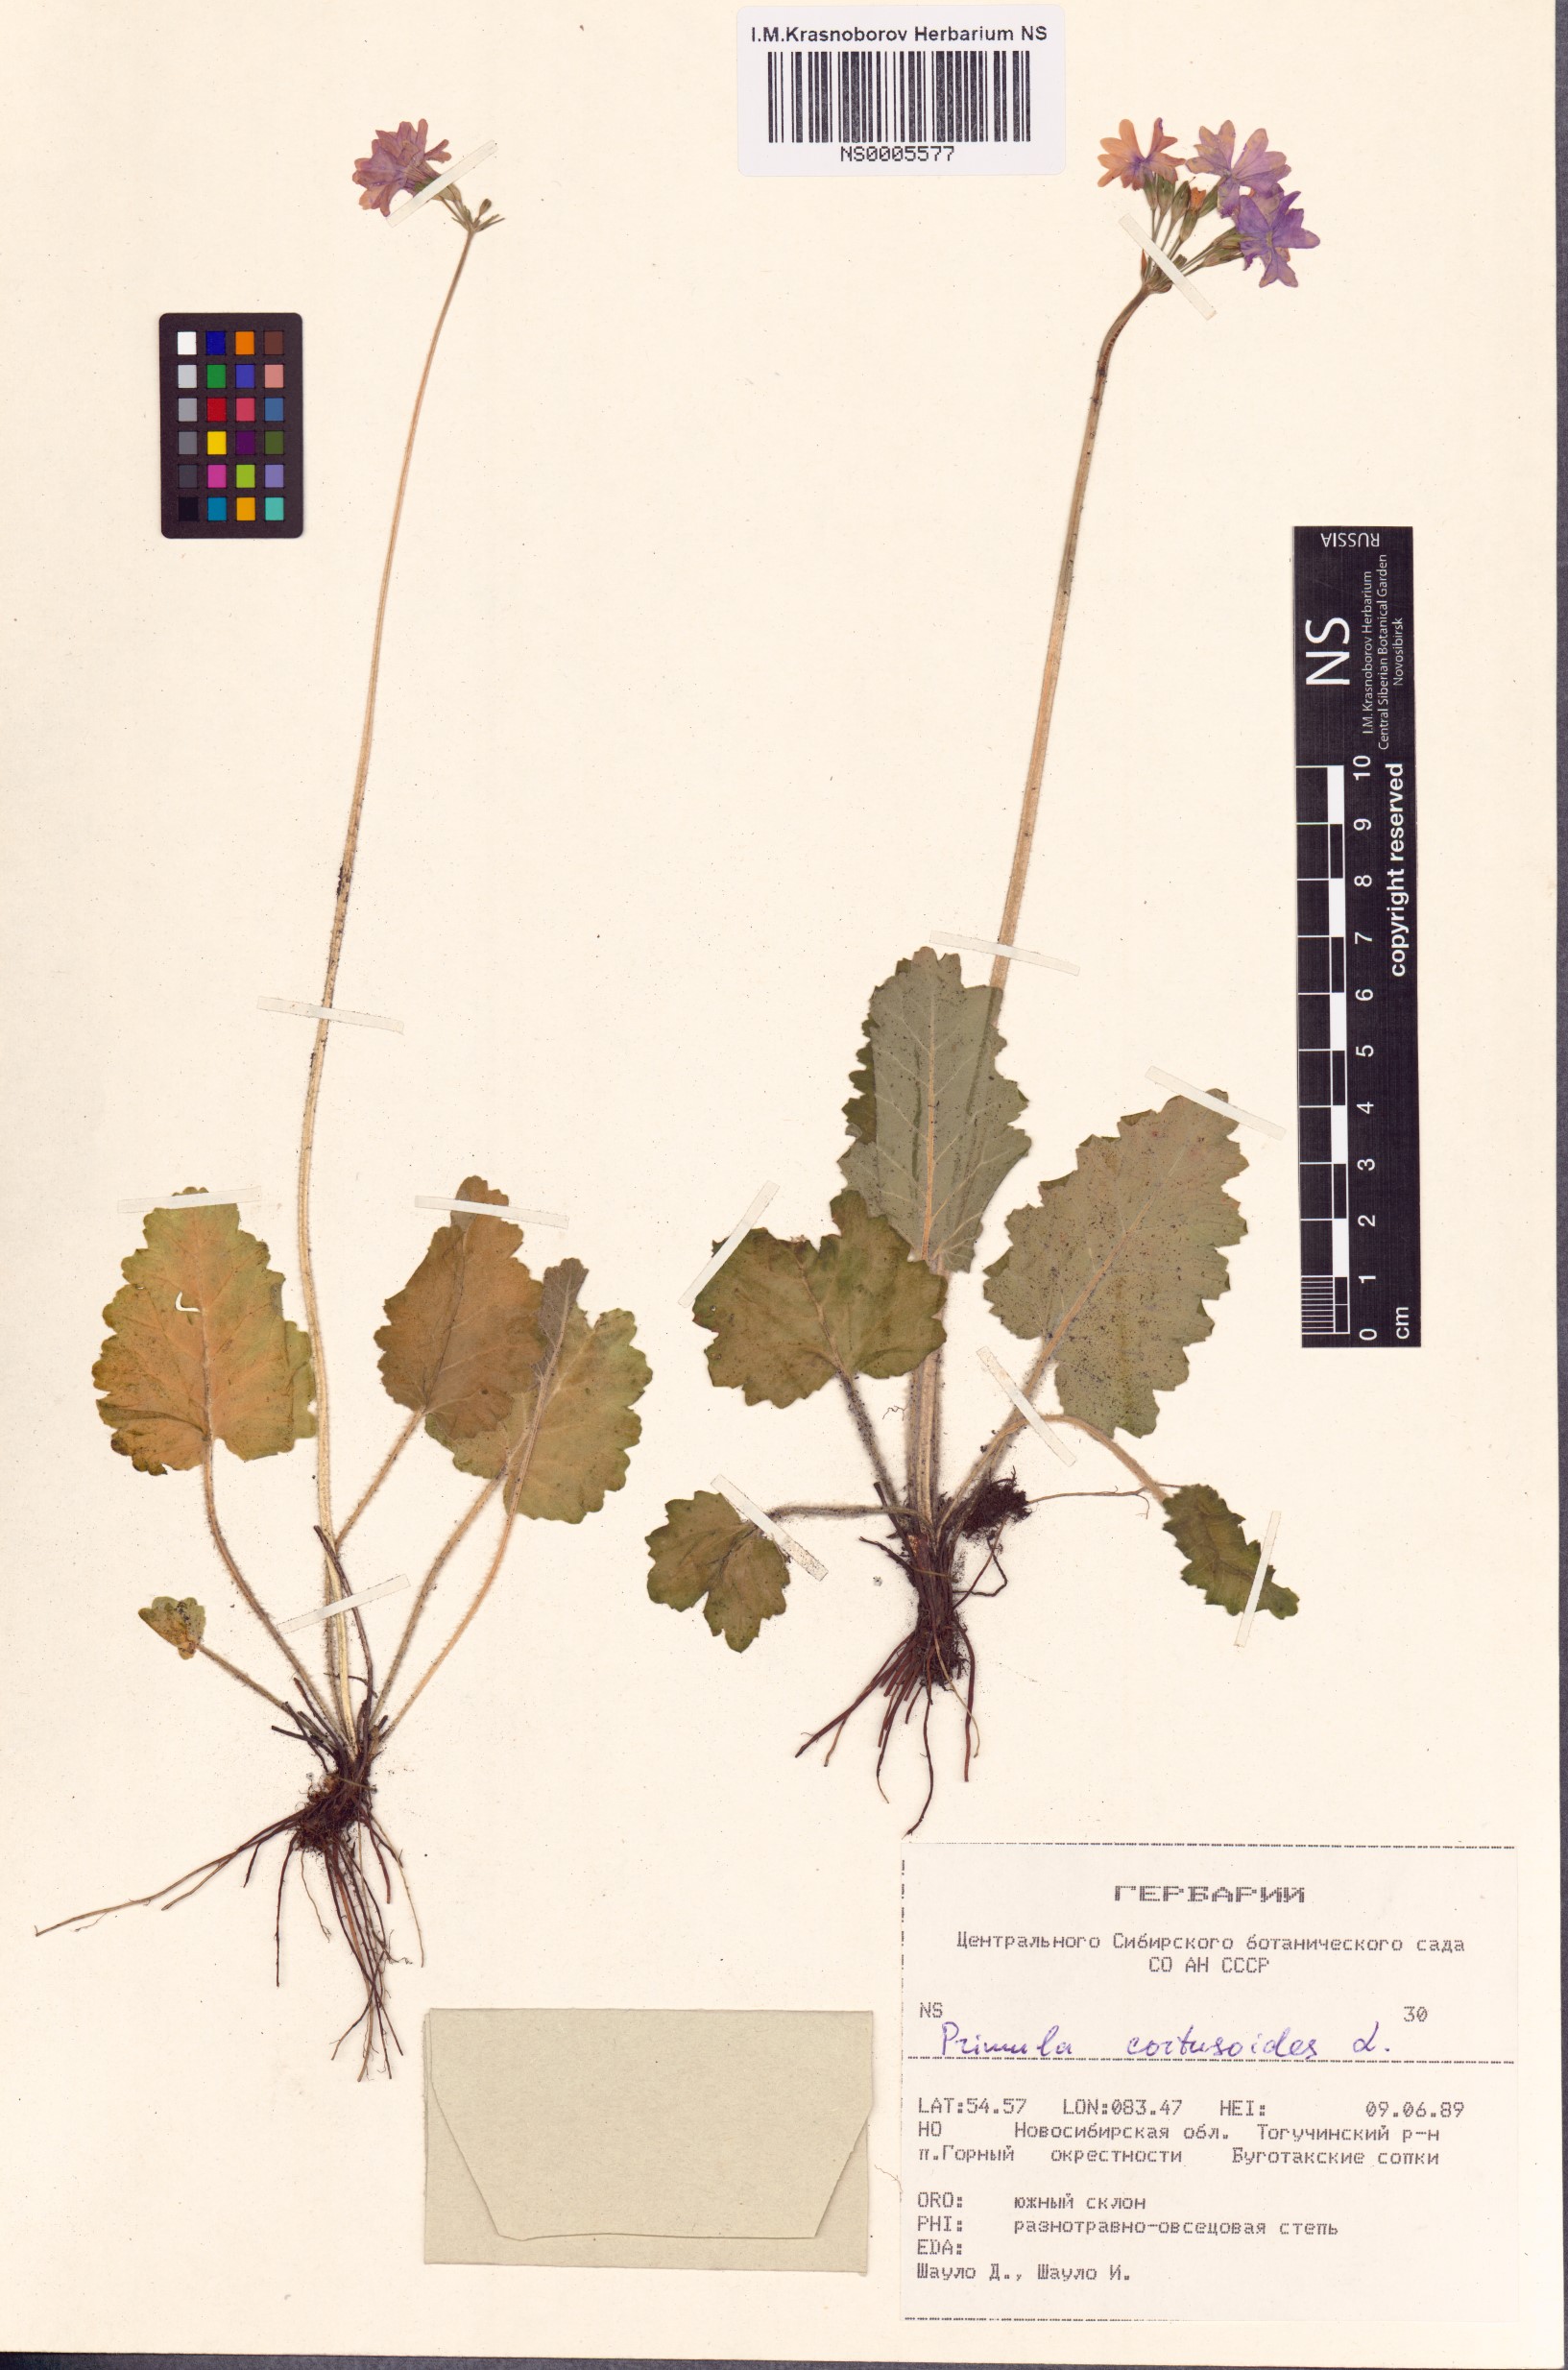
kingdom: Plantae
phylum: Tracheophyta
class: Magnoliopsida
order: Ericales
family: Primulaceae
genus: Primula
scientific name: Primula cortusoides
